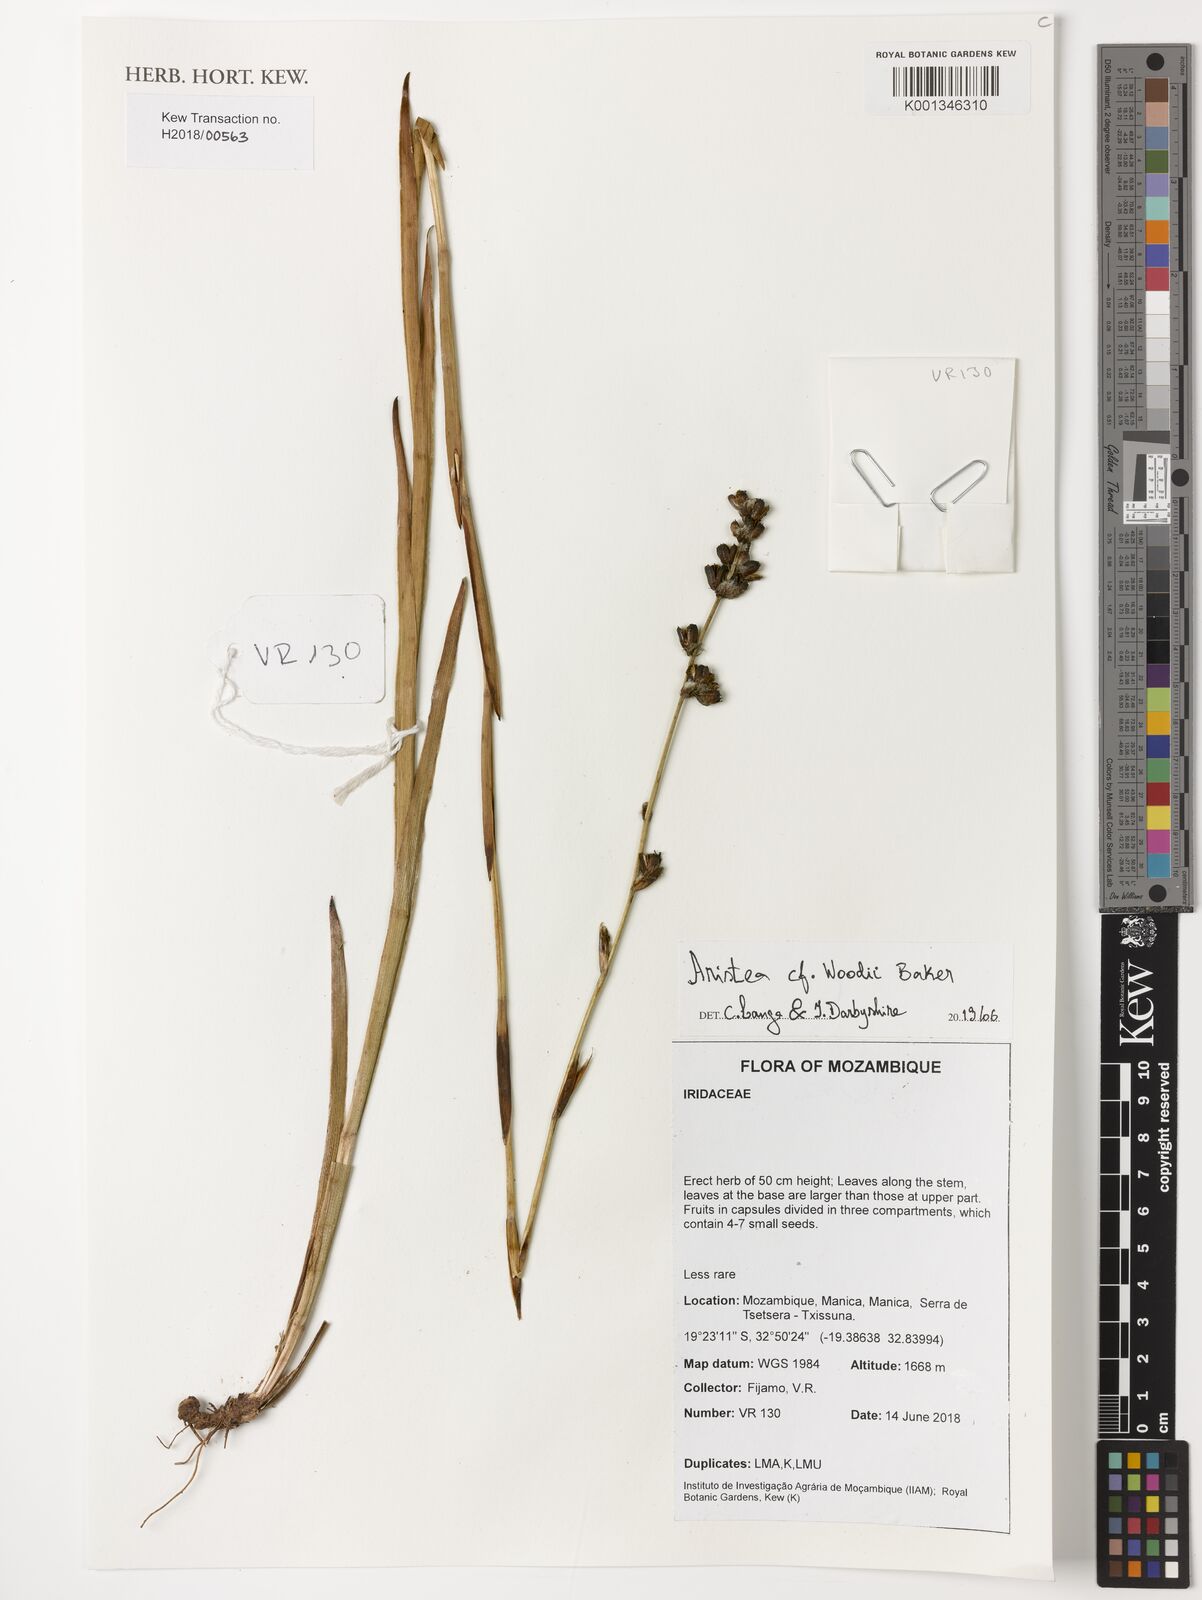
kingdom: Plantae
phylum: Tracheophyta
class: Liliopsida
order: Asparagales
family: Iridaceae
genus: Aristea
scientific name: Aristea torulosa
